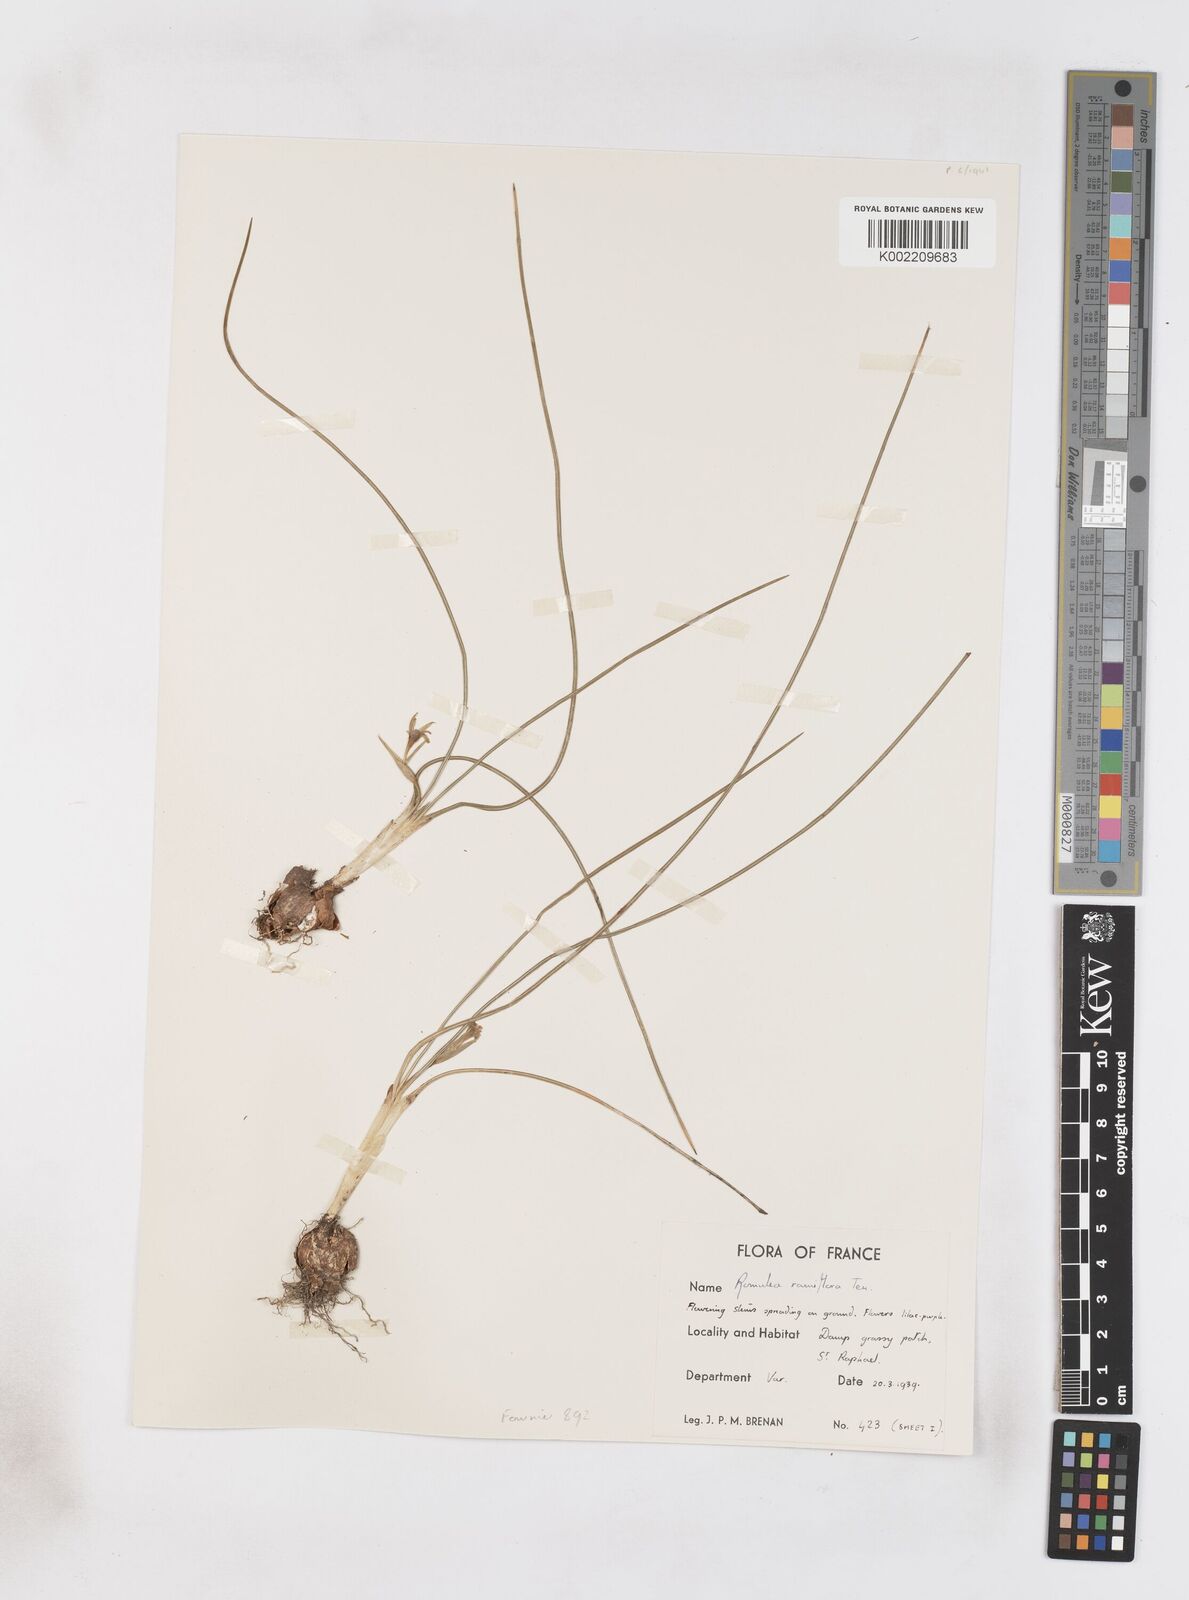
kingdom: Plantae
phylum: Tracheophyta
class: Liliopsida
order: Asparagales
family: Iridaceae
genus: Romulea
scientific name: Romulea ramiflora
